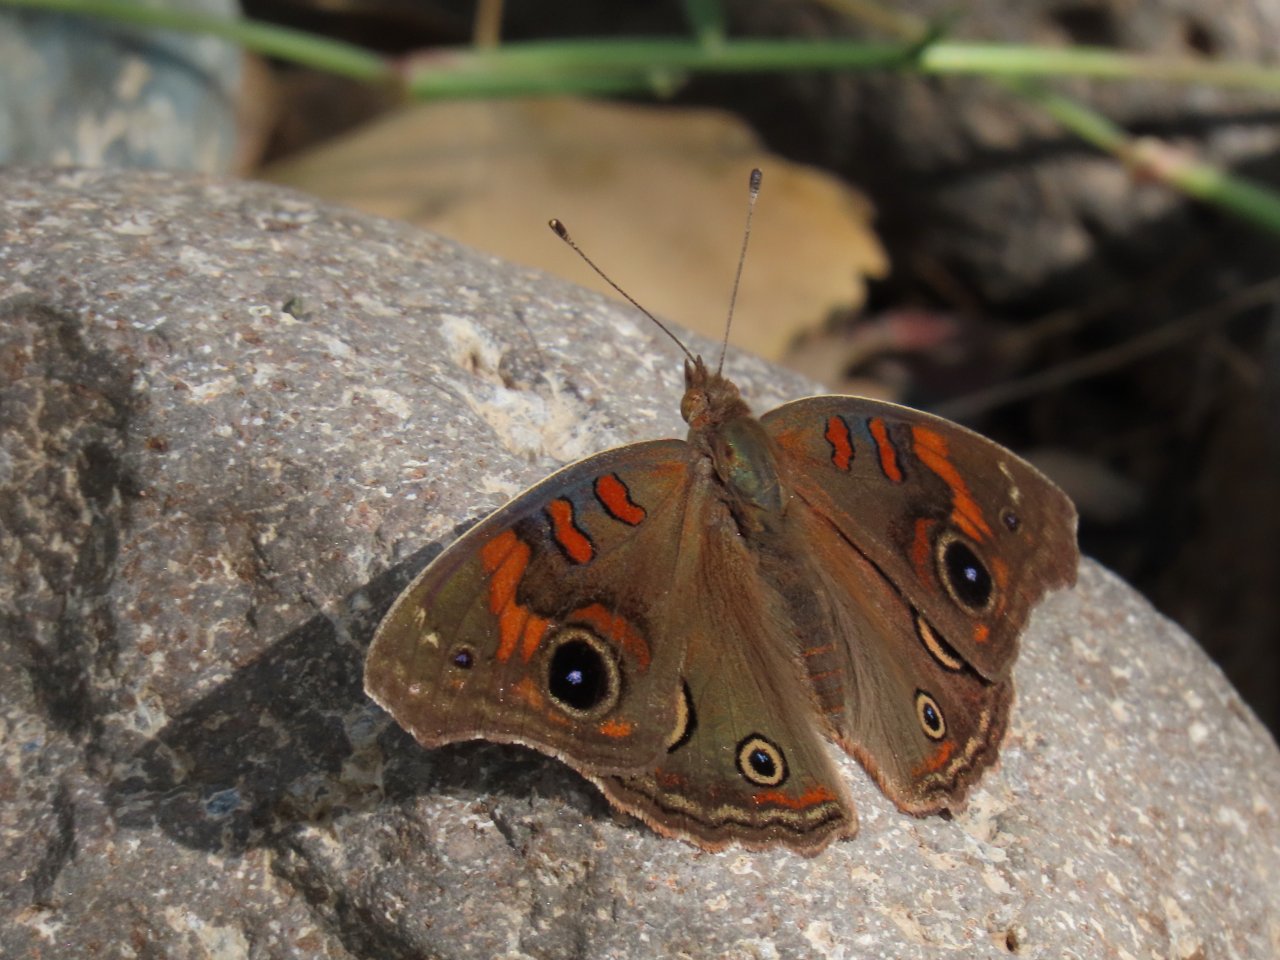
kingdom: Animalia
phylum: Arthropoda
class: Insecta
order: Lepidoptera
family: Nymphalidae
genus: Junonia
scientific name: Junonia lavinia
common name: Tropical Buckeye
